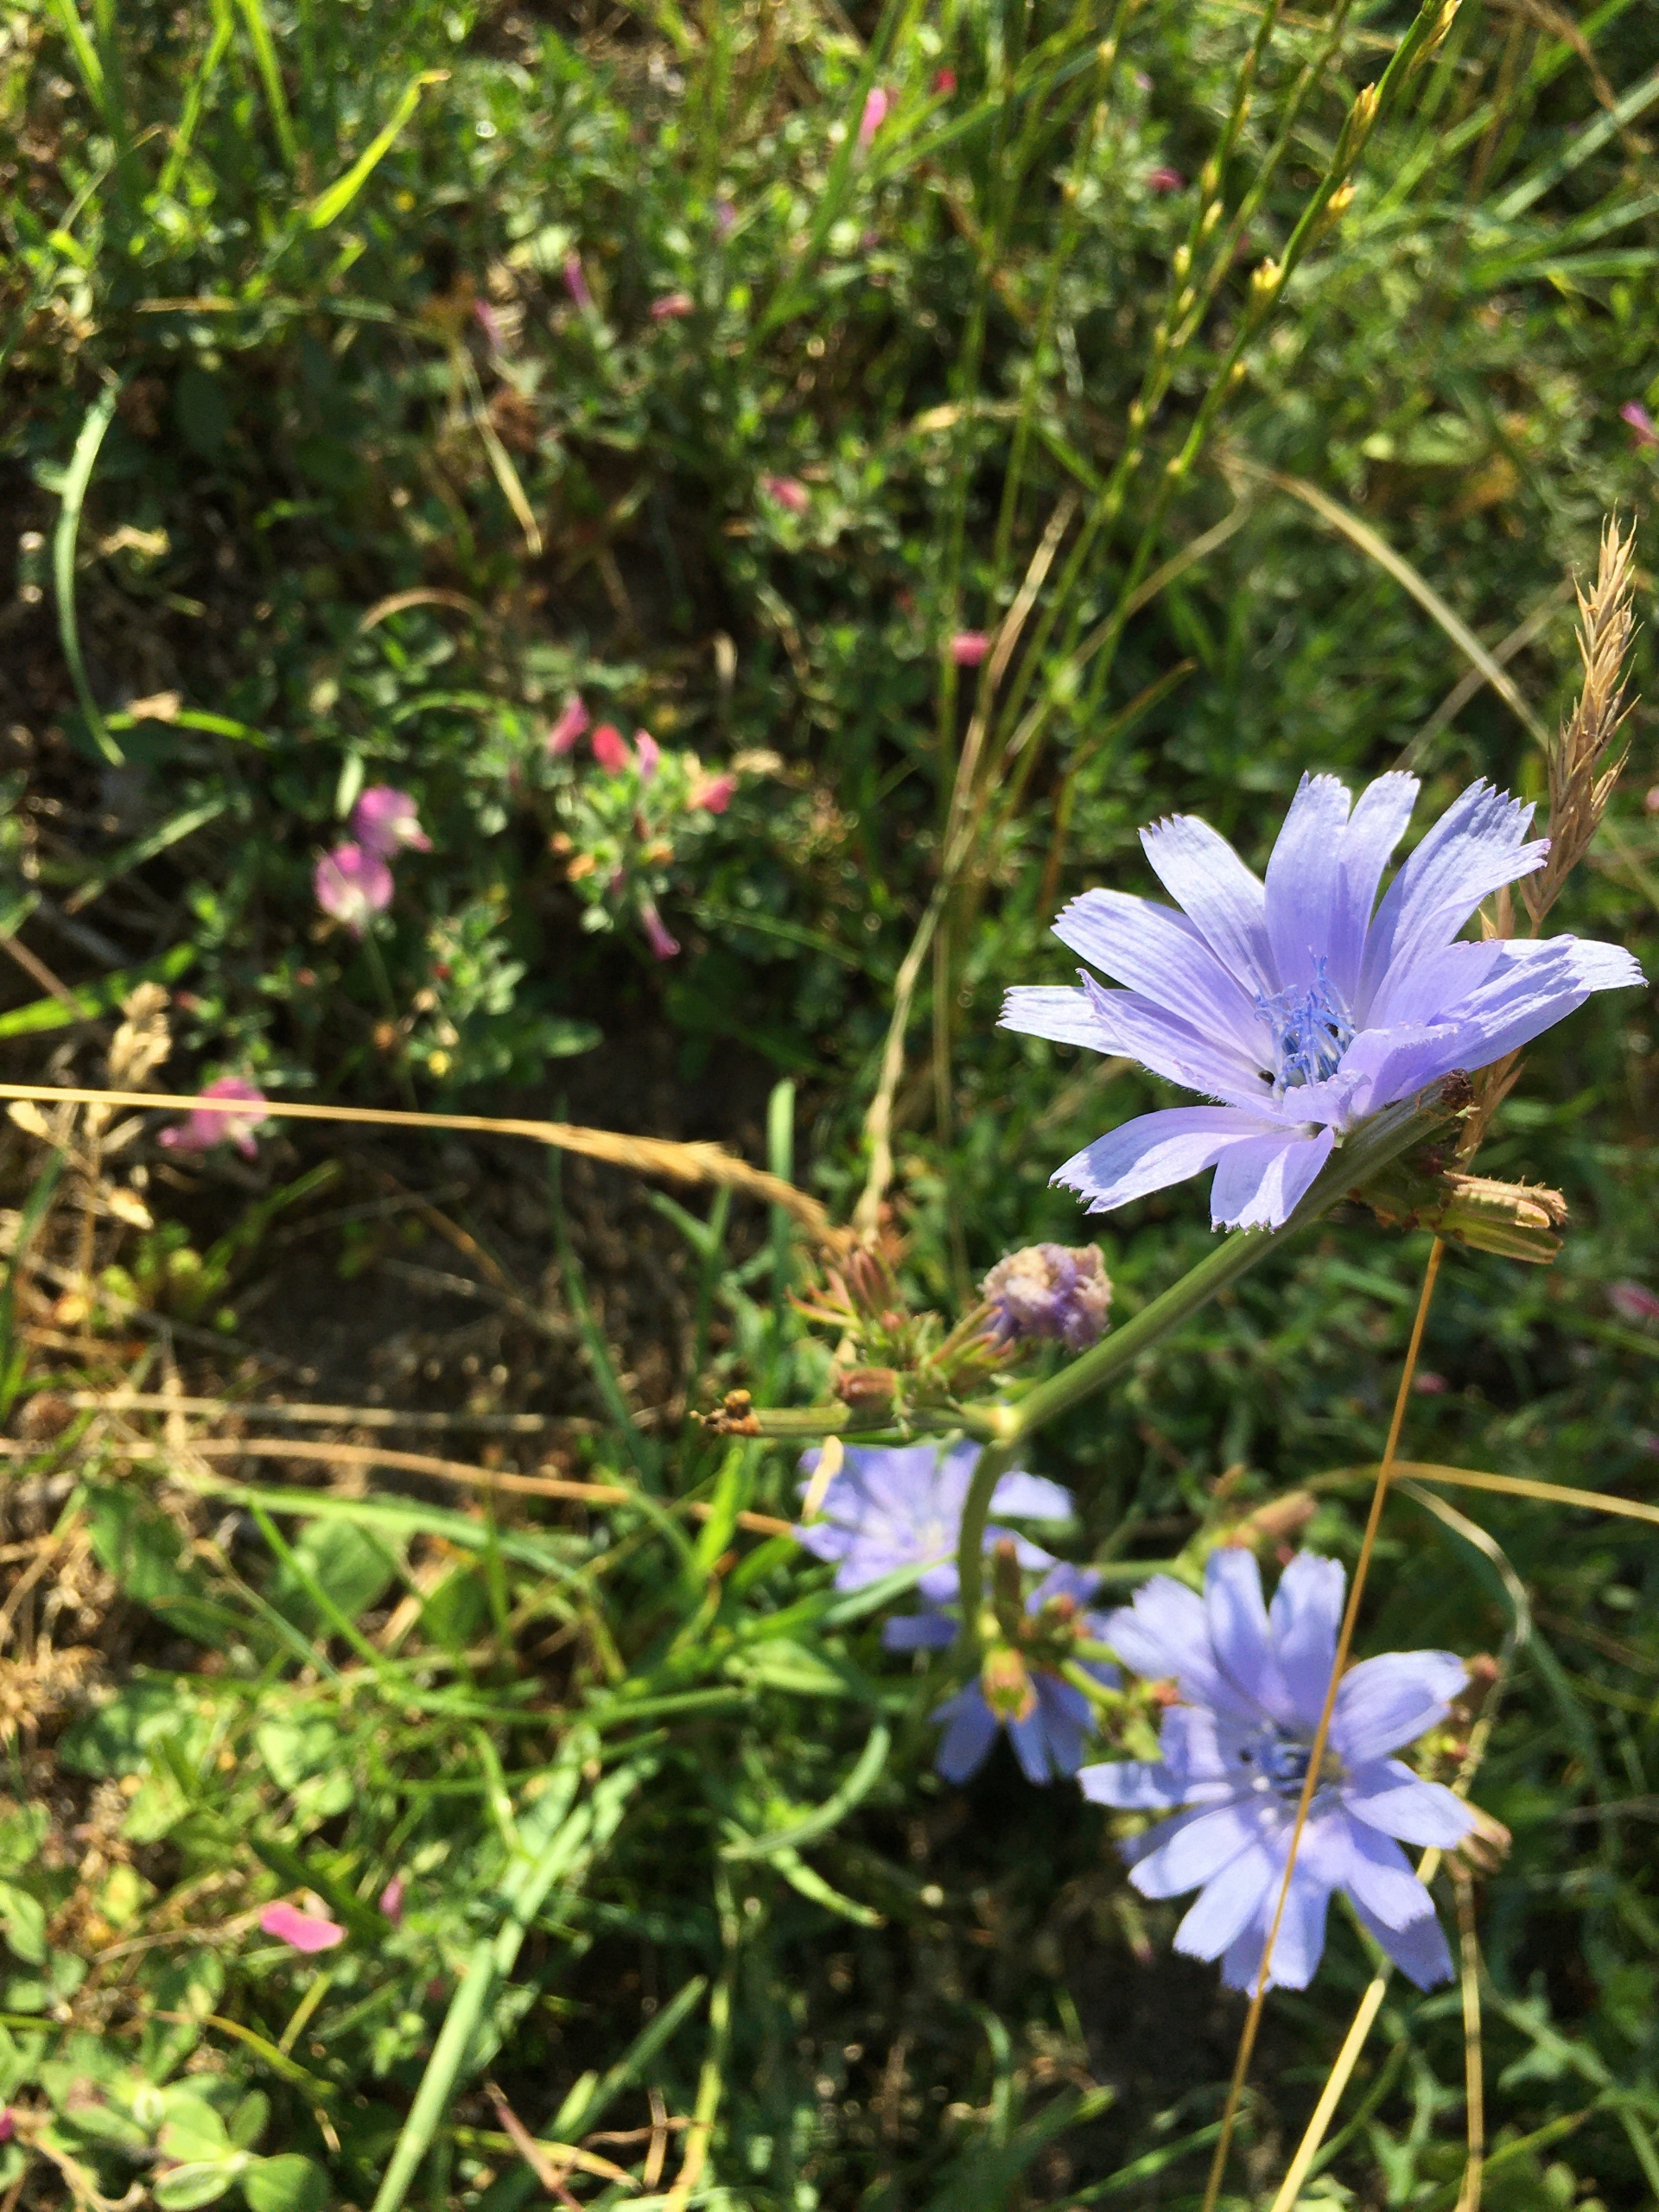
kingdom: Plantae
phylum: Tracheophyta
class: Magnoliopsida
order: Asterales
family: Asteraceae
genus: Cichorium
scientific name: Cichorium intybus
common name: Cikorie
